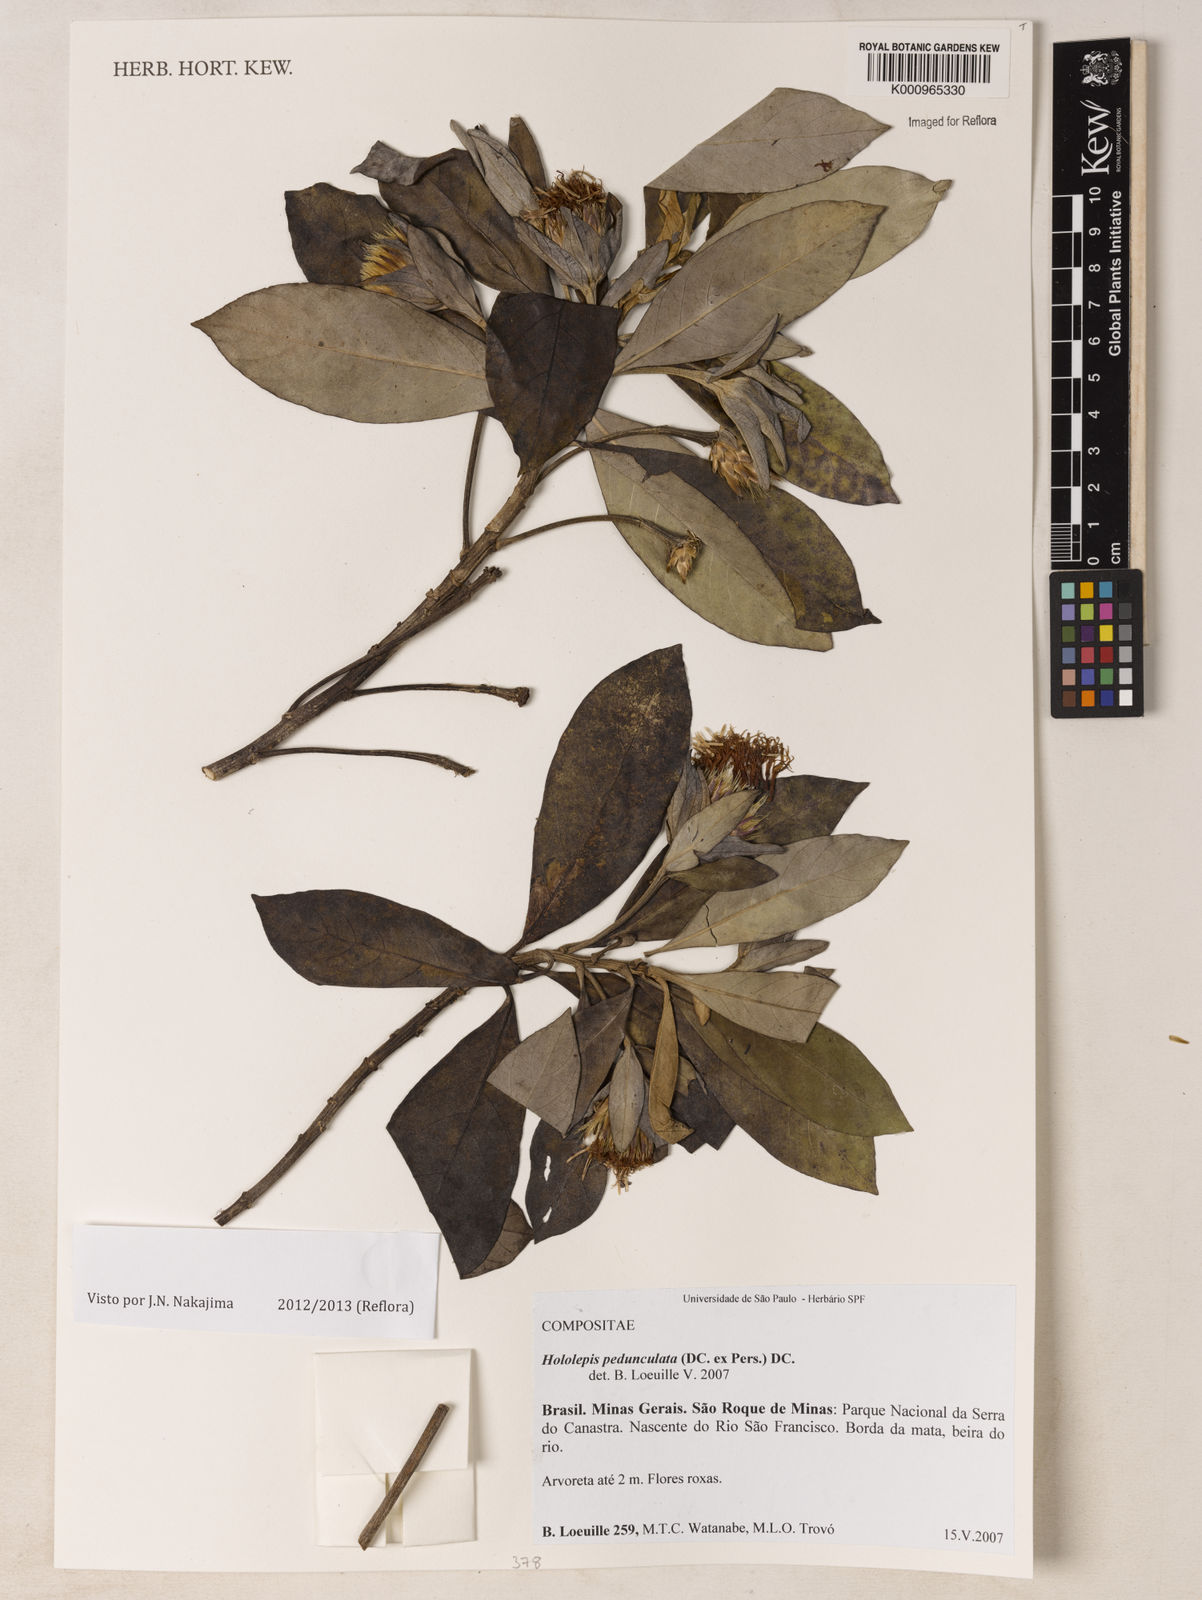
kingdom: Plantae
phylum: Tracheophyta
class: Magnoliopsida
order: Asterales
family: Asteraceae
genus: Hololepis
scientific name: Hololepis pedunculata
